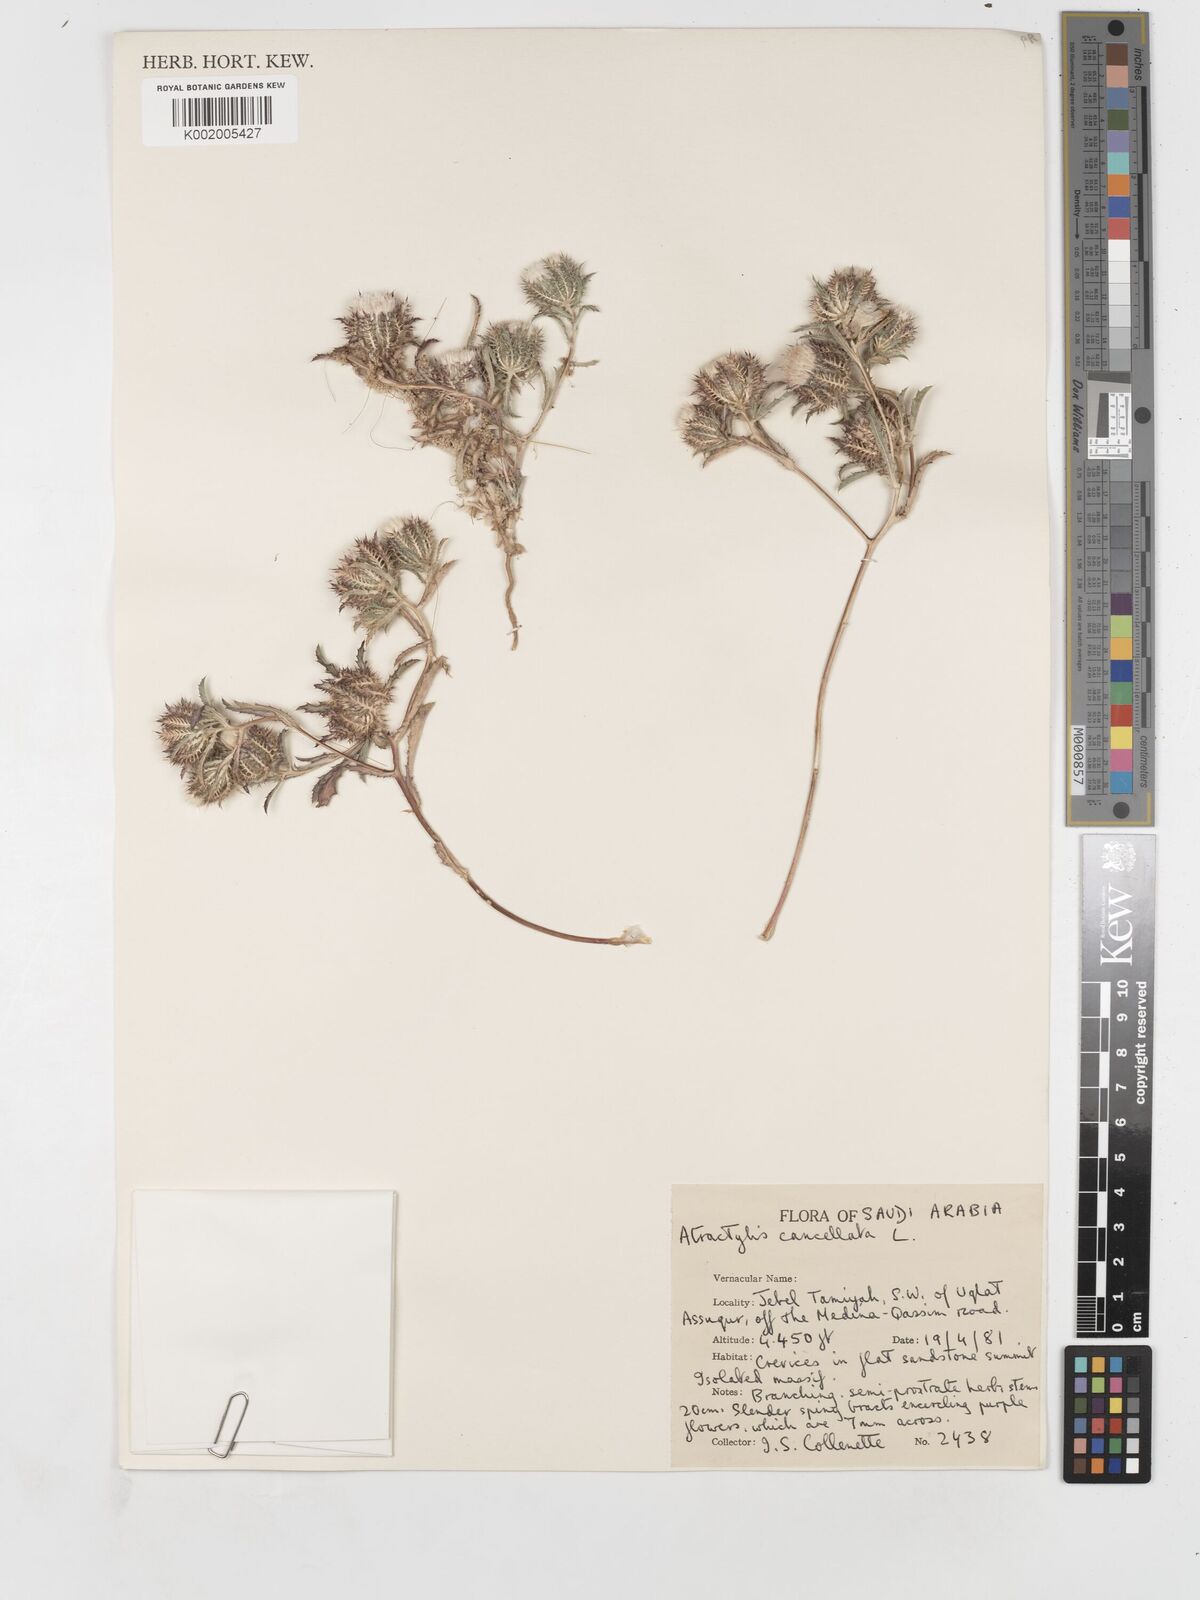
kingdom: Plantae
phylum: Tracheophyta
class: Magnoliopsida
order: Asterales
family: Asteraceae
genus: Atractylis
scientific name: Atractylis cancellata
